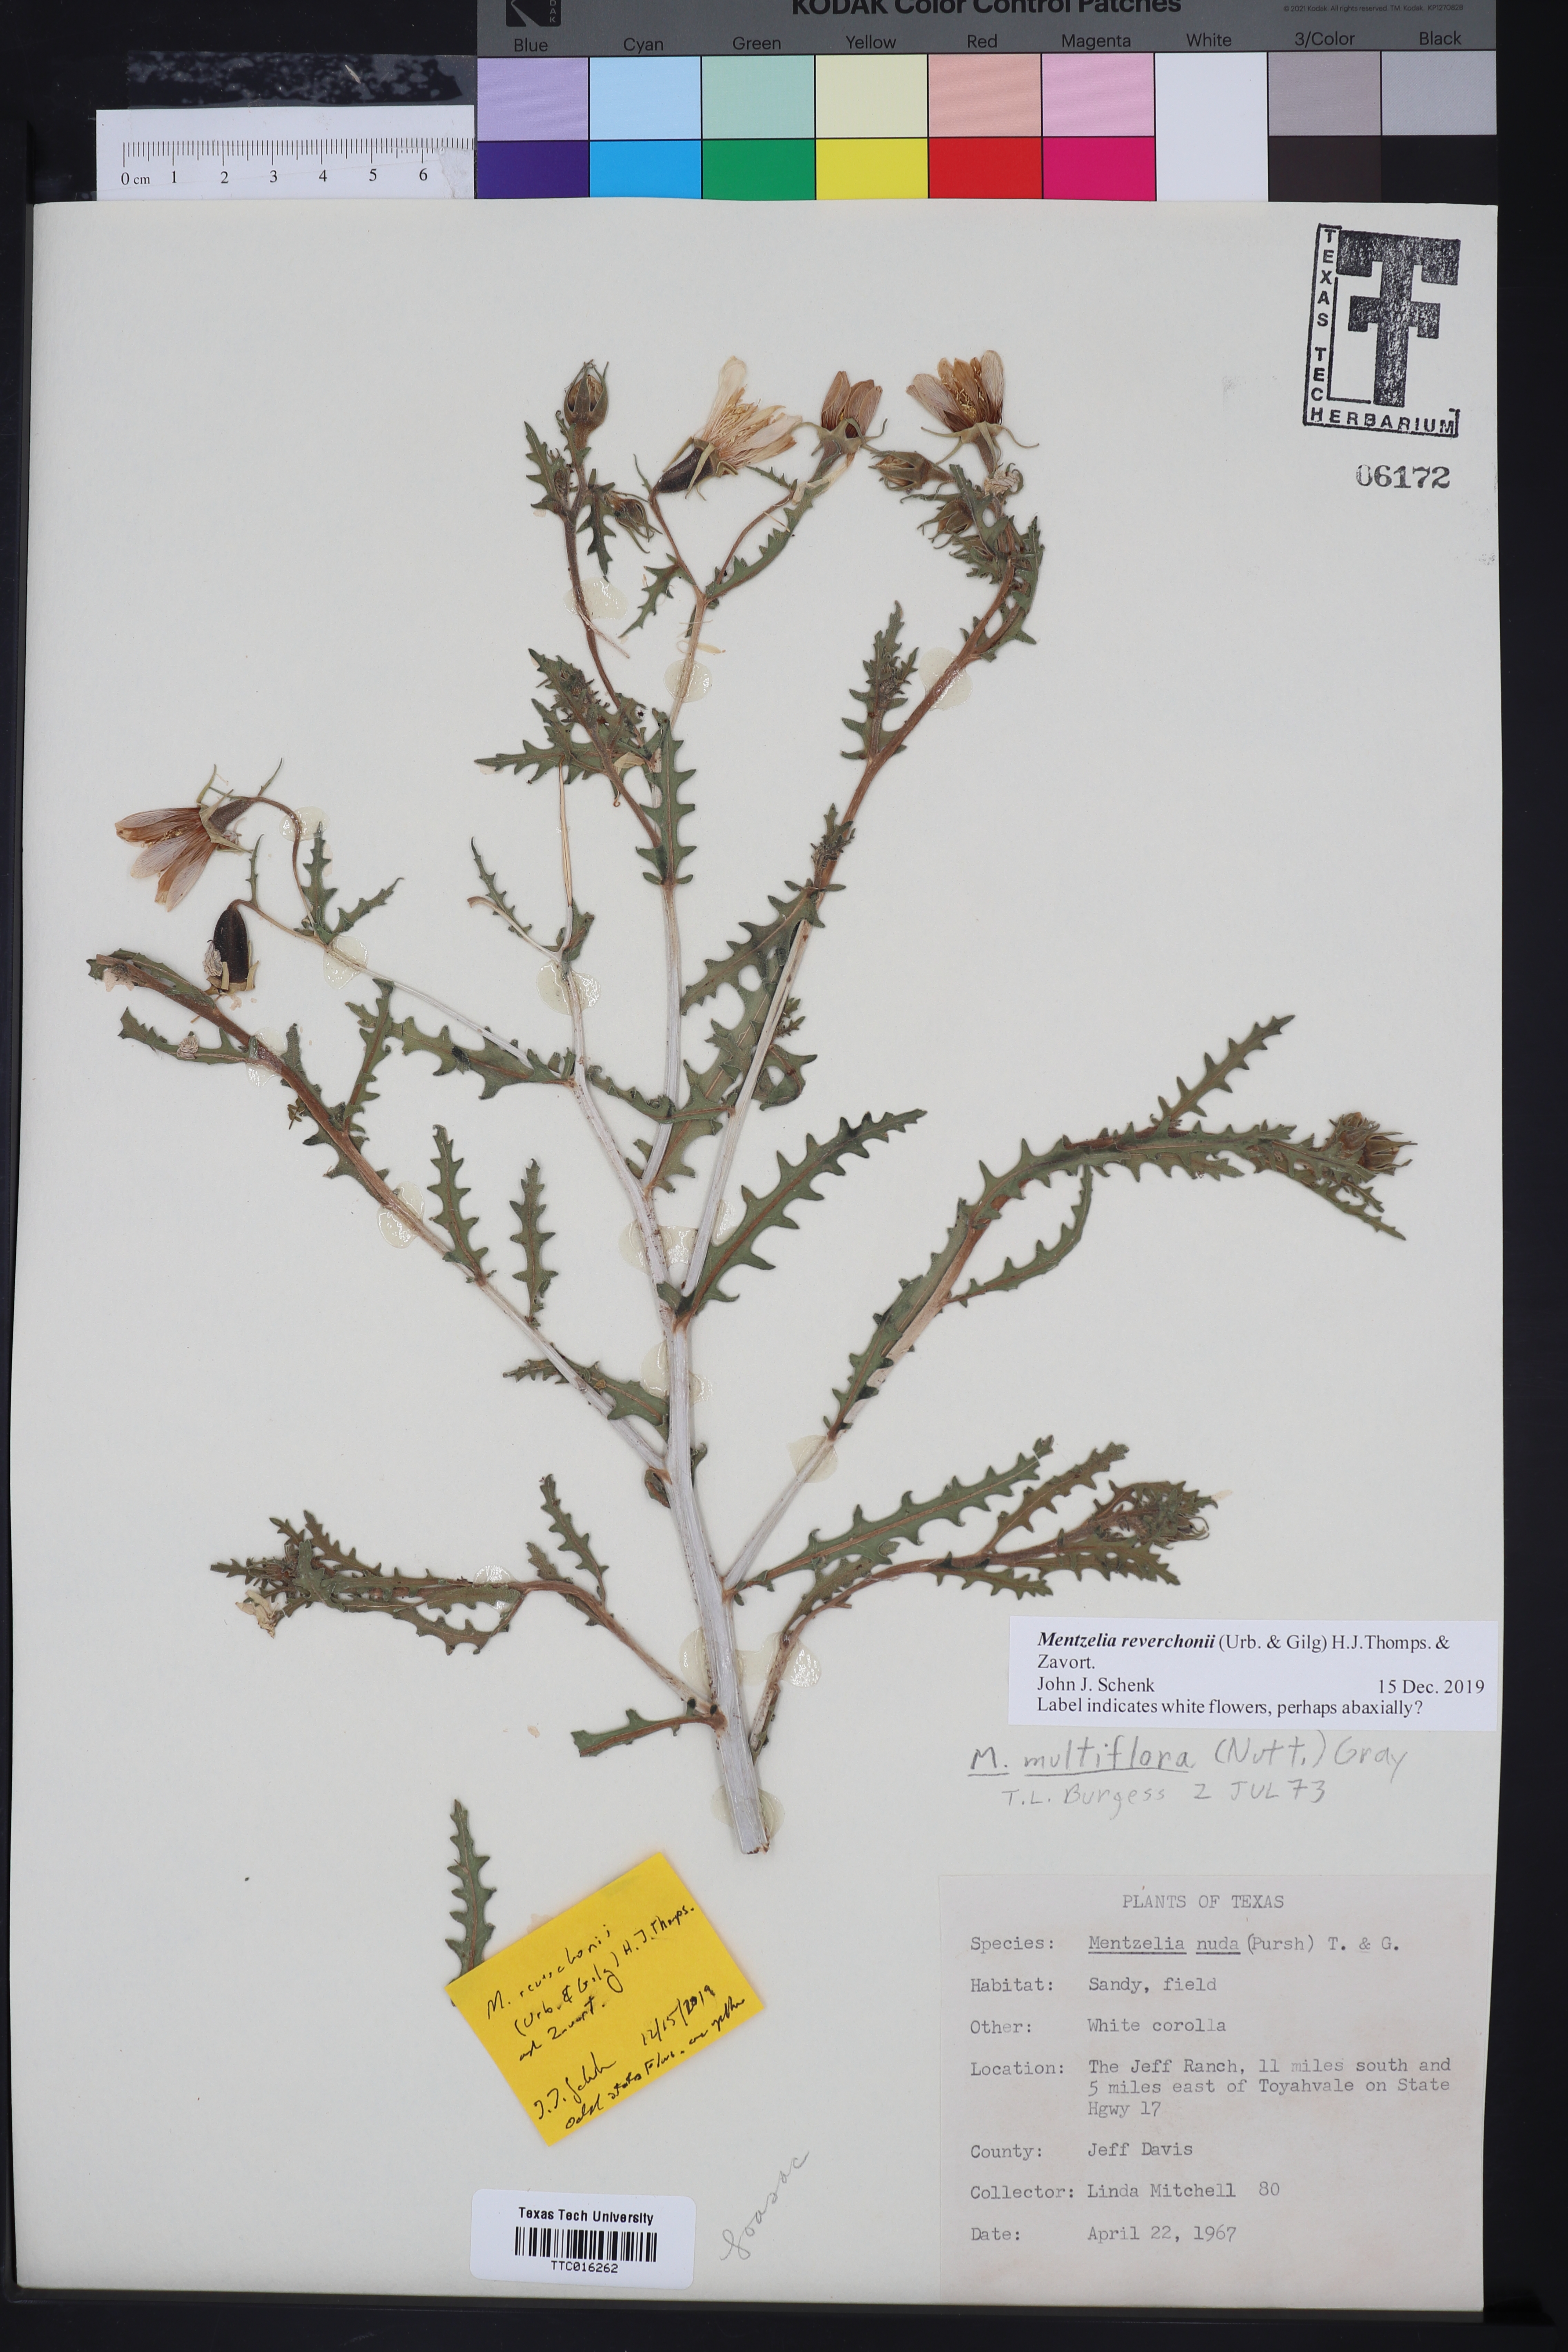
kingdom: Plantae
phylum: Tracheophyta
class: Magnoliopsida
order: Cornales
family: Loasaceae
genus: Mentzelia
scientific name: Mentzelia reverchonii
